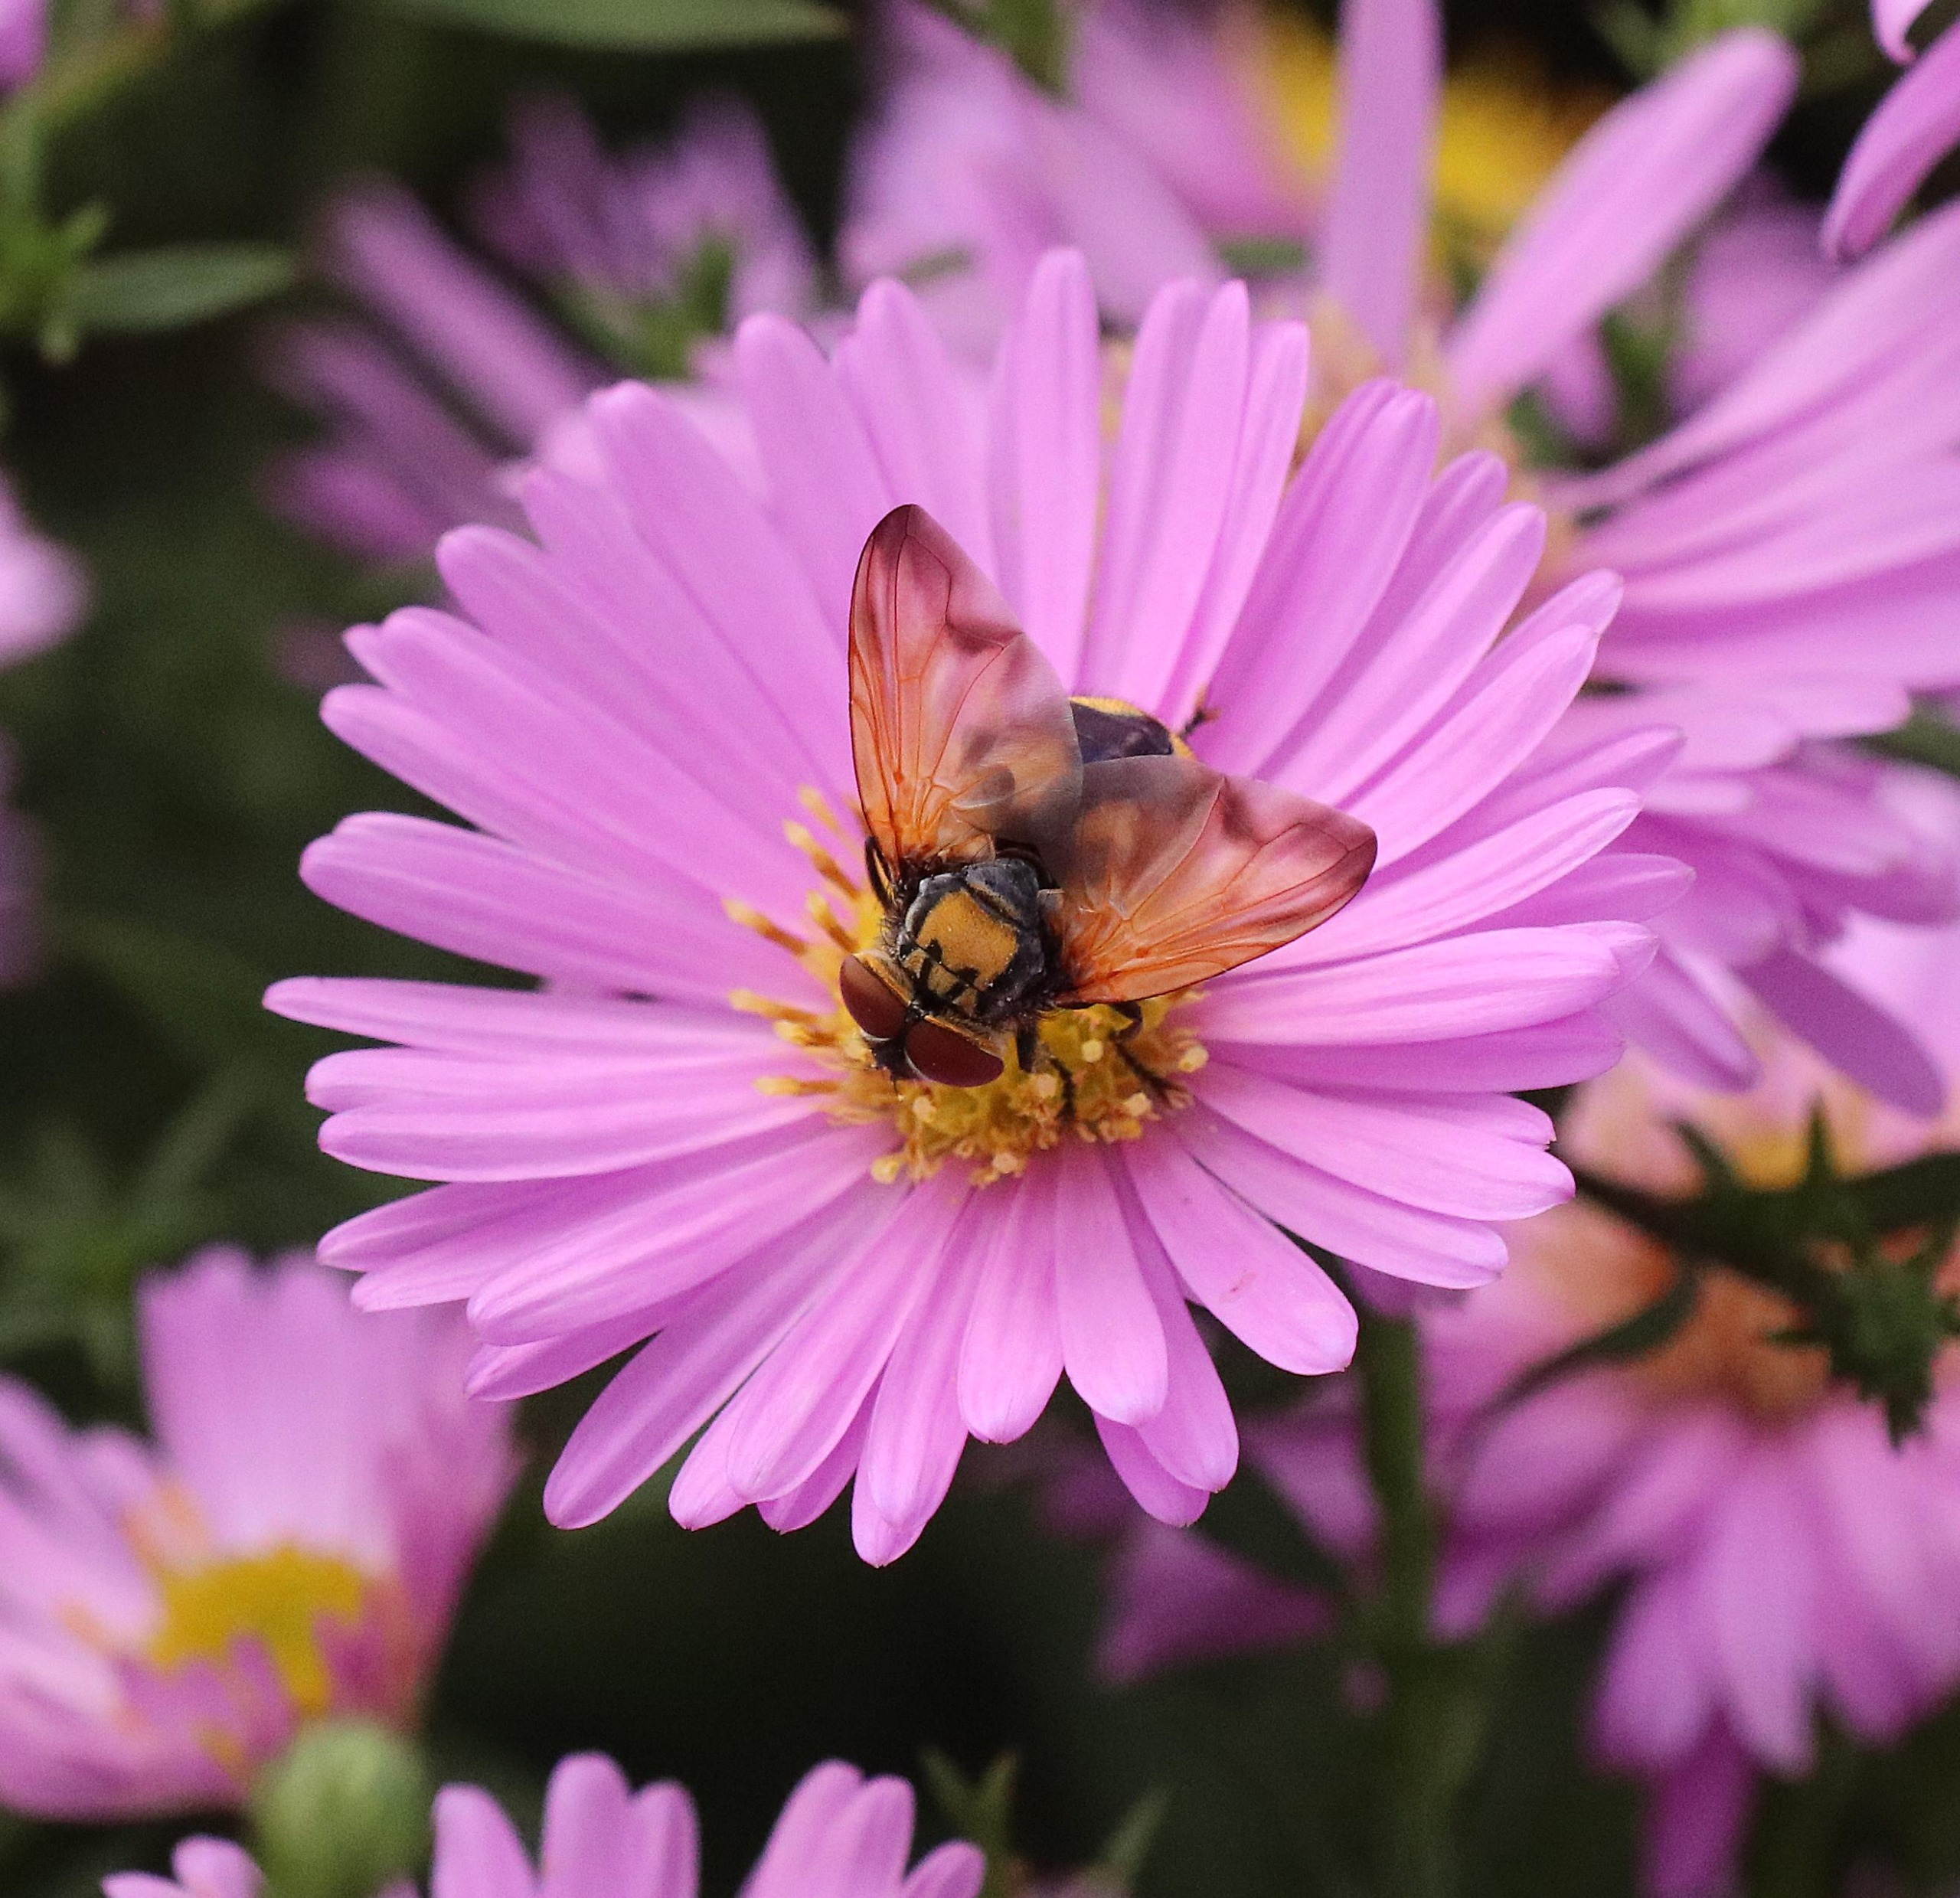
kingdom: Animalia
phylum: Arthropoda
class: Insecta
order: Diptera
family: Tachinidae
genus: Phasia
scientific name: Phasia aurigera
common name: Gylden pragtsnylteflue
